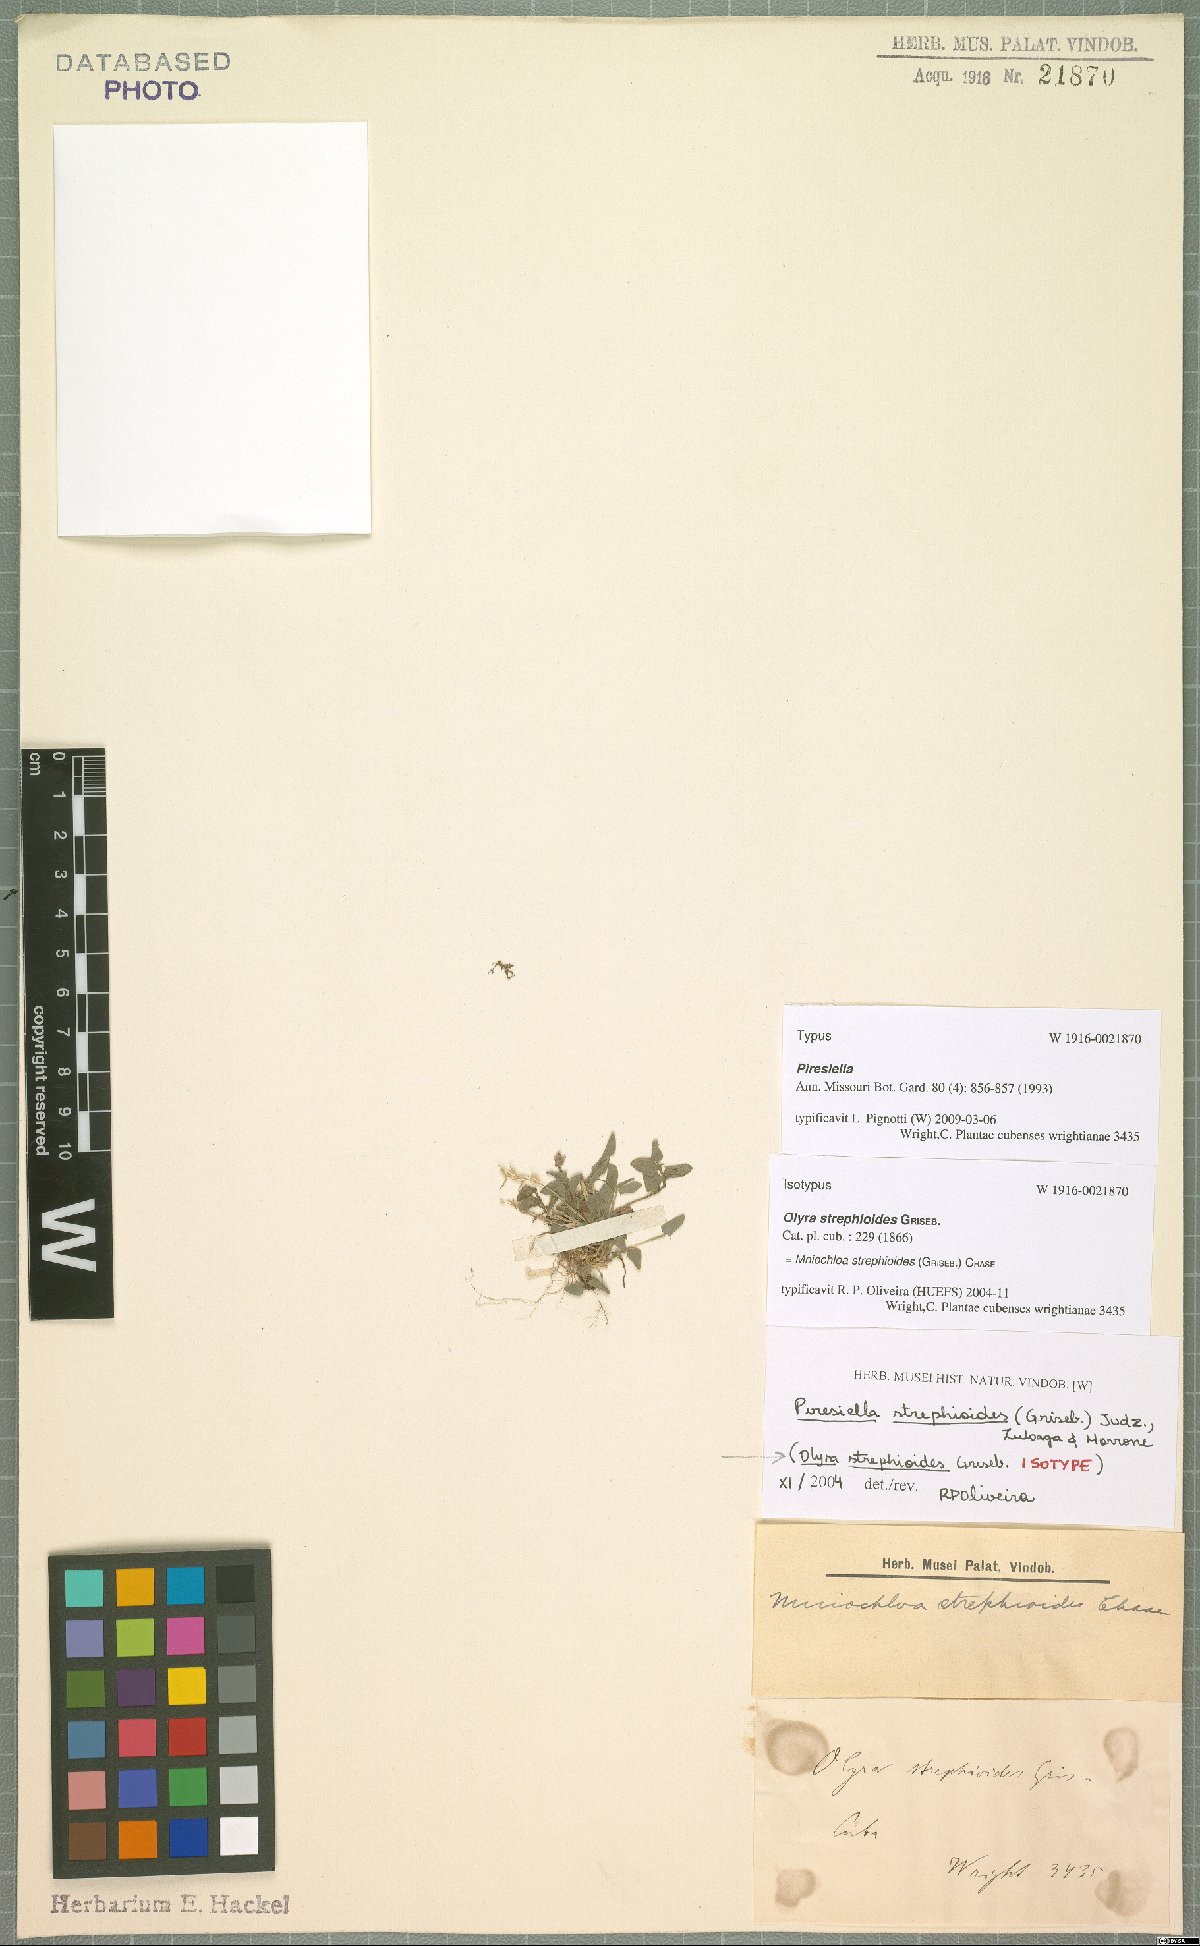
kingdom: Plantae
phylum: Tracheophyta
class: Liliopsida
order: Poales
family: Poaceae
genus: Piresiella
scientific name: Piresiella strephioides
